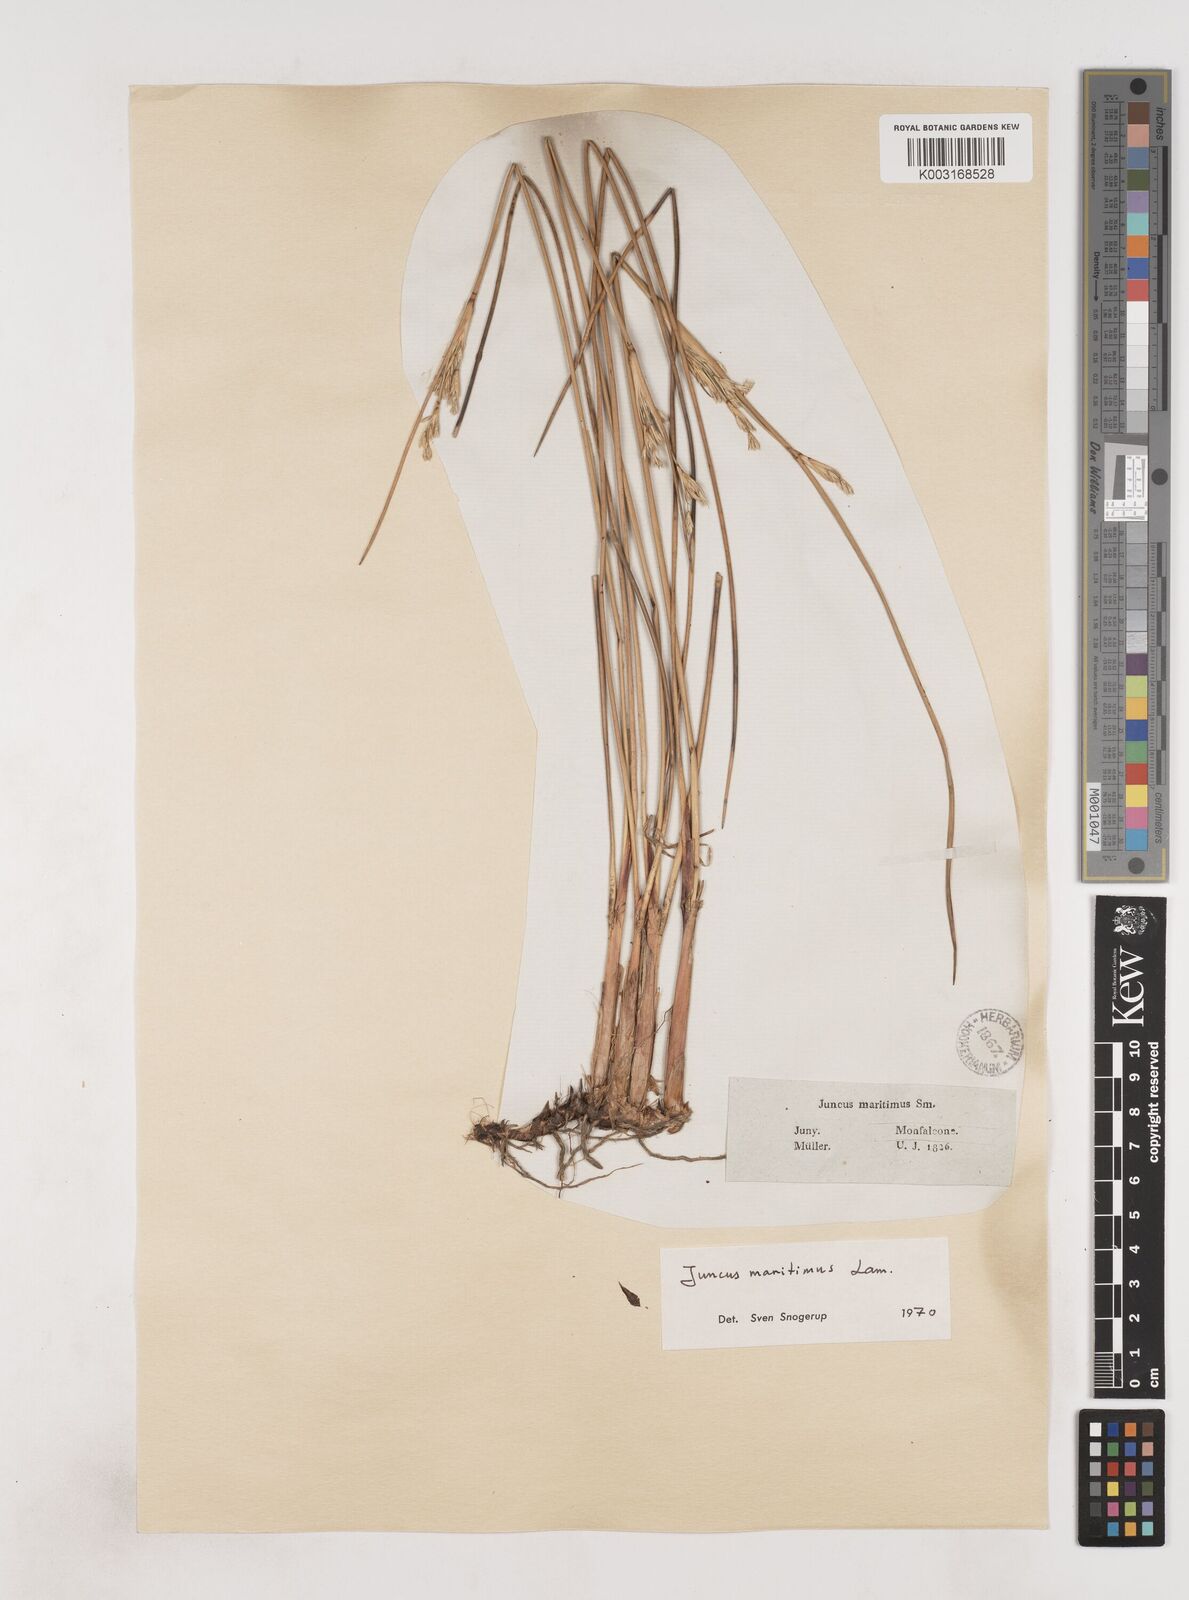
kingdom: Plantae
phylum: Tracheophyta
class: Liliopsida
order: Poales
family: Juncaceae
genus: Juncus
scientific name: Juncus maritimus
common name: Sea rush
